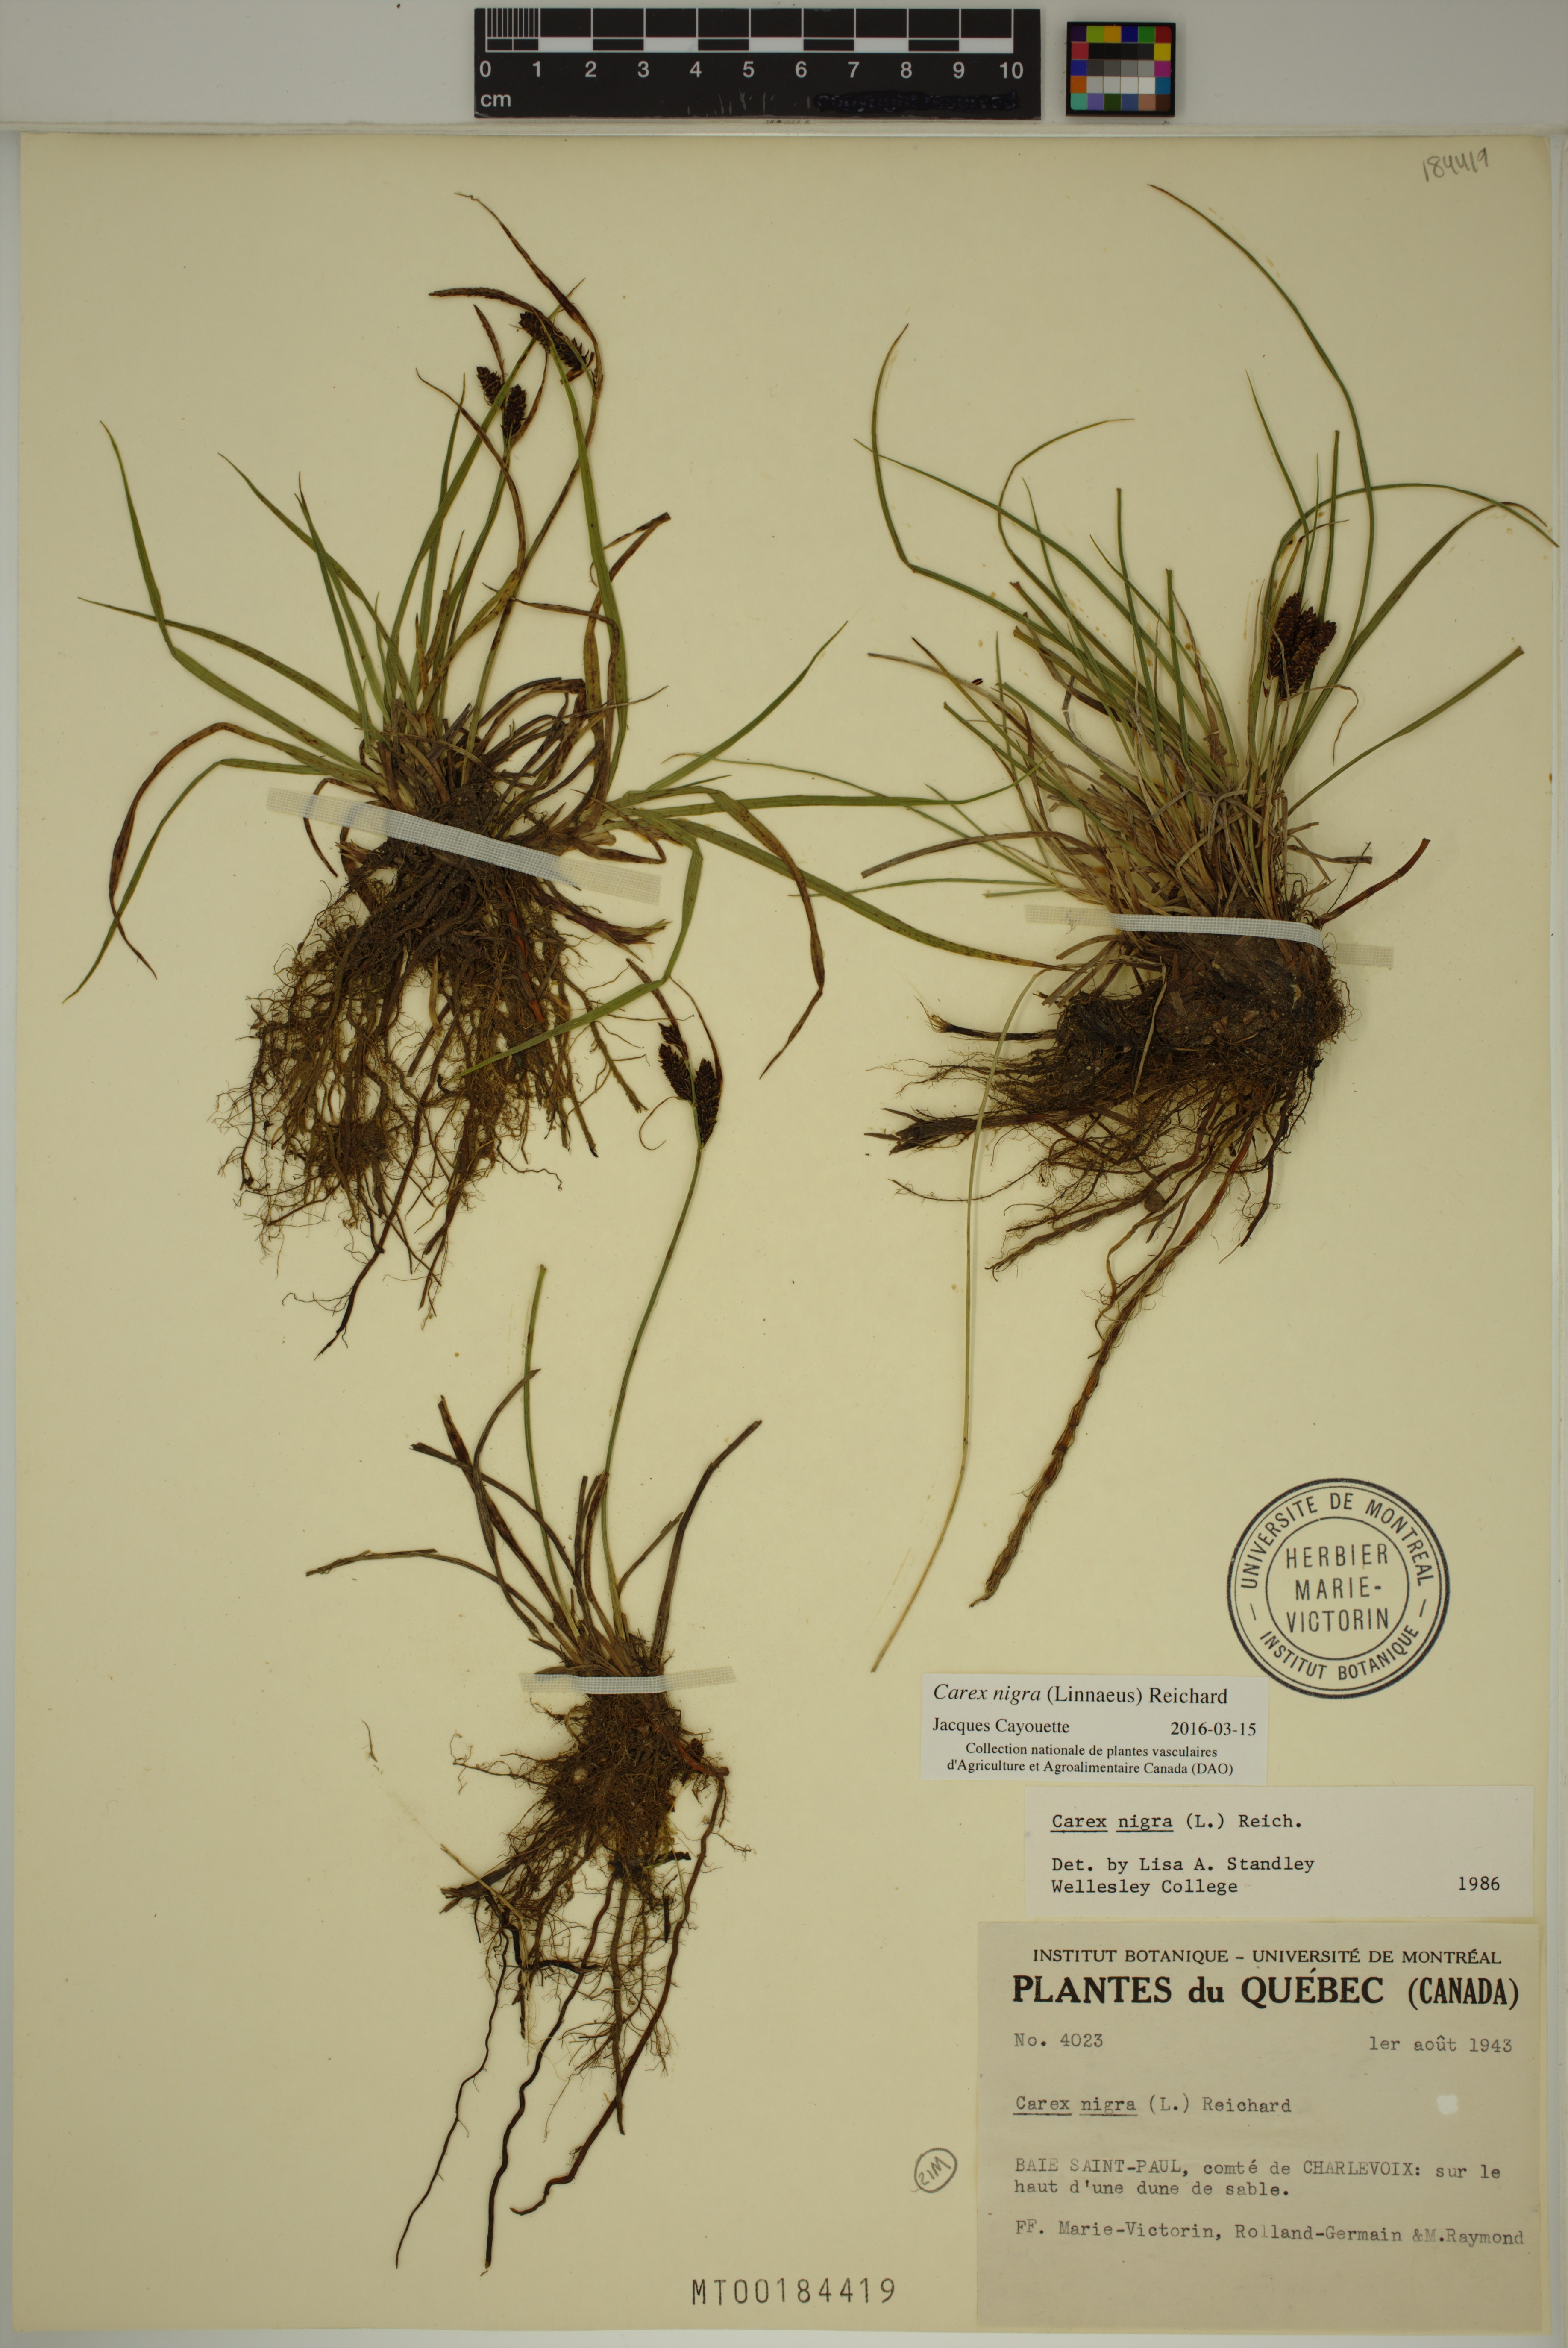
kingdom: Plantae
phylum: Tracheophyta
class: Liliopsida
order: Poales
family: Cyperaceae
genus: Carex
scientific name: Carex nigra
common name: Common sedge
